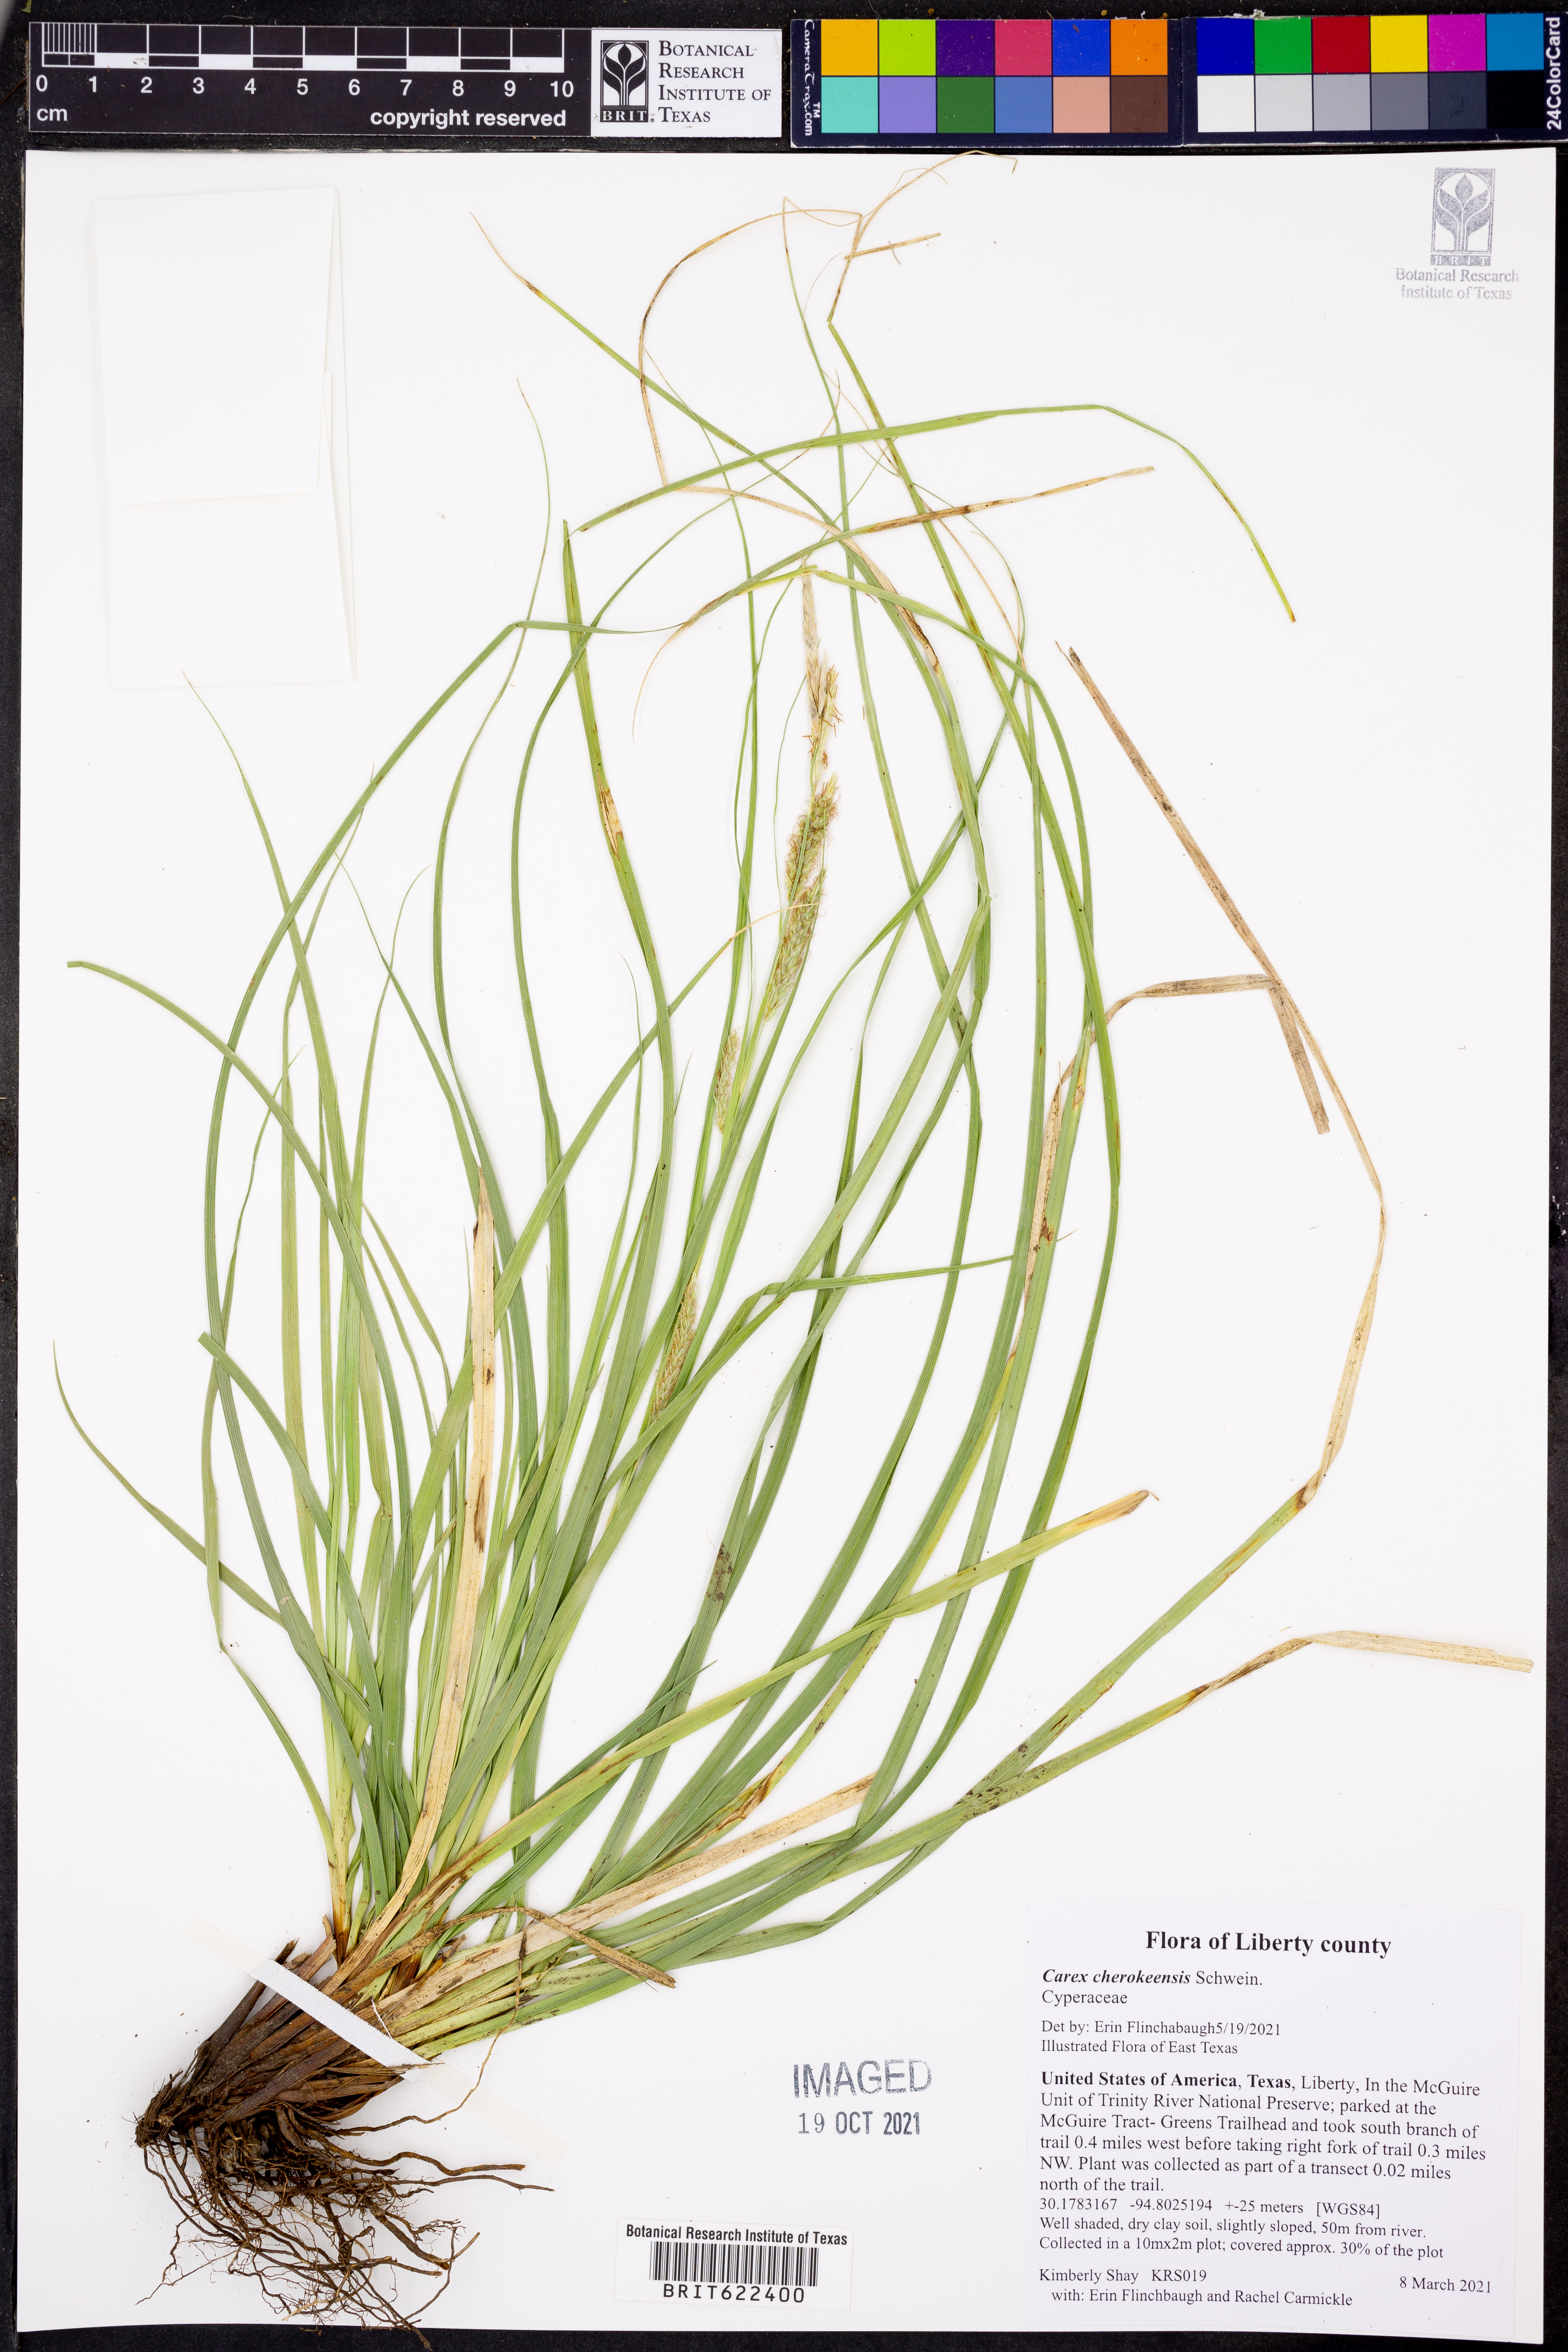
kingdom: Plantae
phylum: Tracheophyta
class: Liliopsida
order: Poales
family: Cyperaceae
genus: Carex
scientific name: Carex cherokeensis
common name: Cherokee sedge
